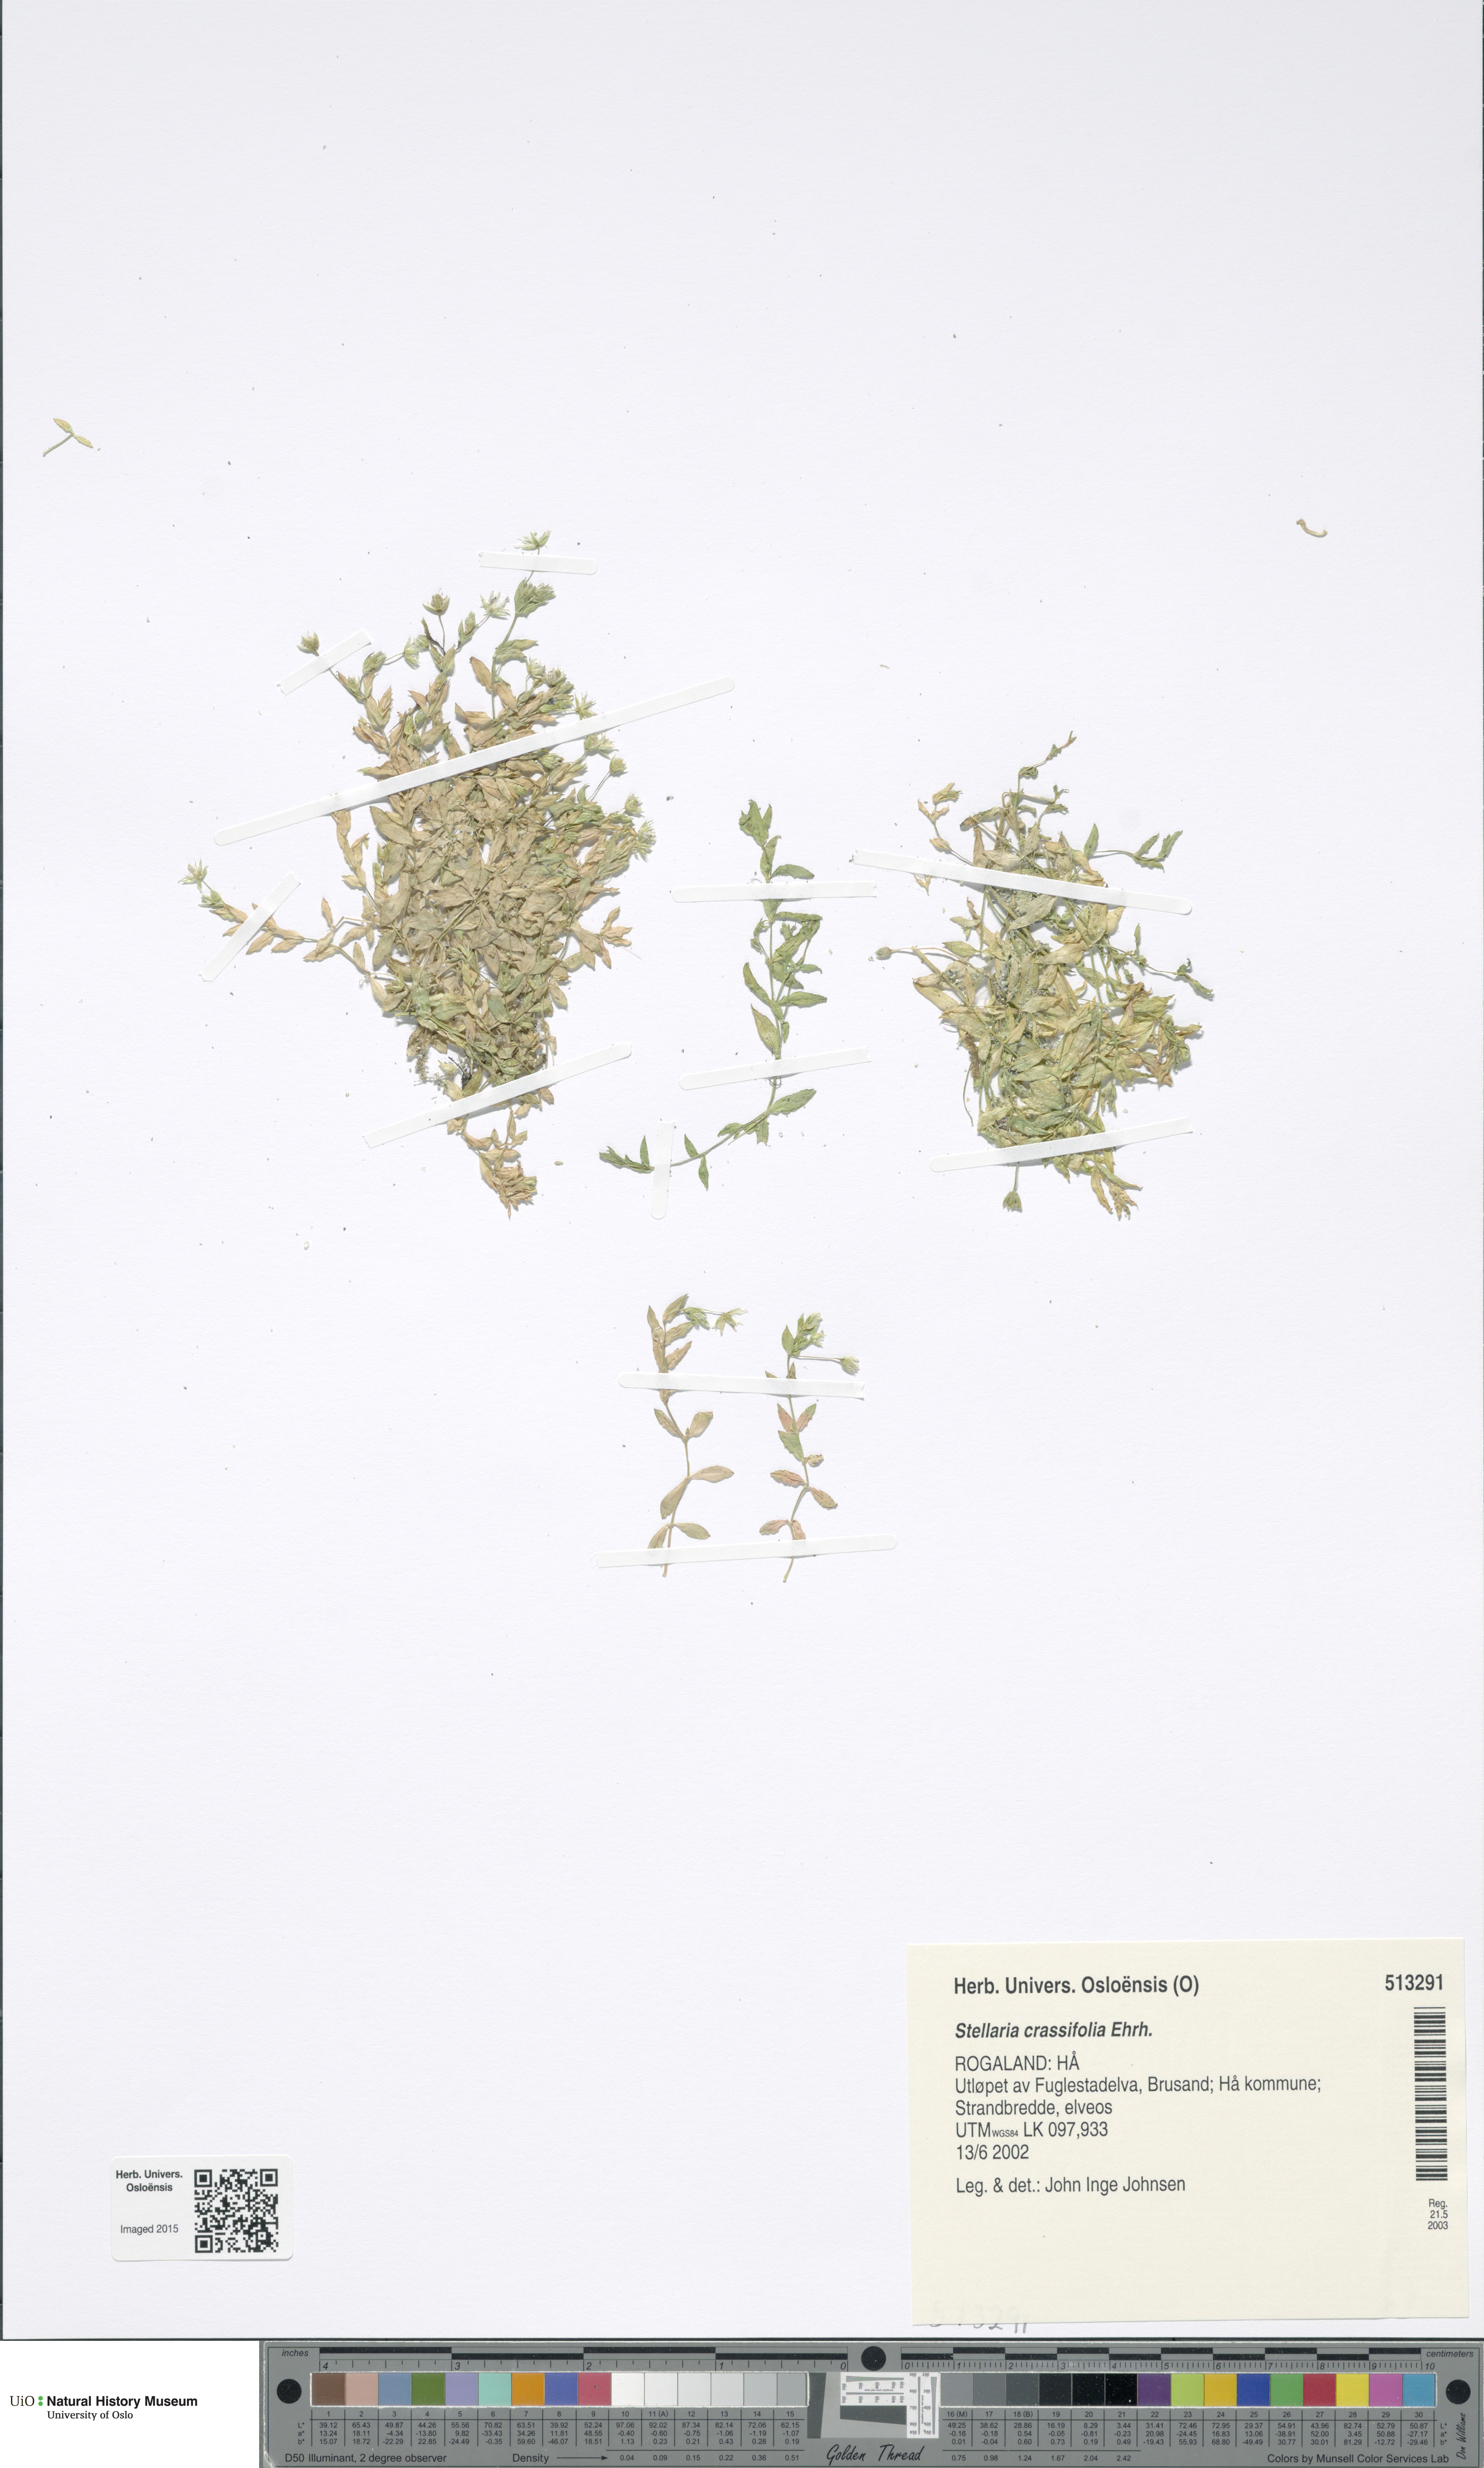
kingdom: Plantae
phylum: Tracheophyta
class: Magnoliopsida
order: Caryophyllales
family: Caryophyllaceae
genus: Stellaria
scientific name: Stellaria crassifolia
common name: Fleshy starwort
